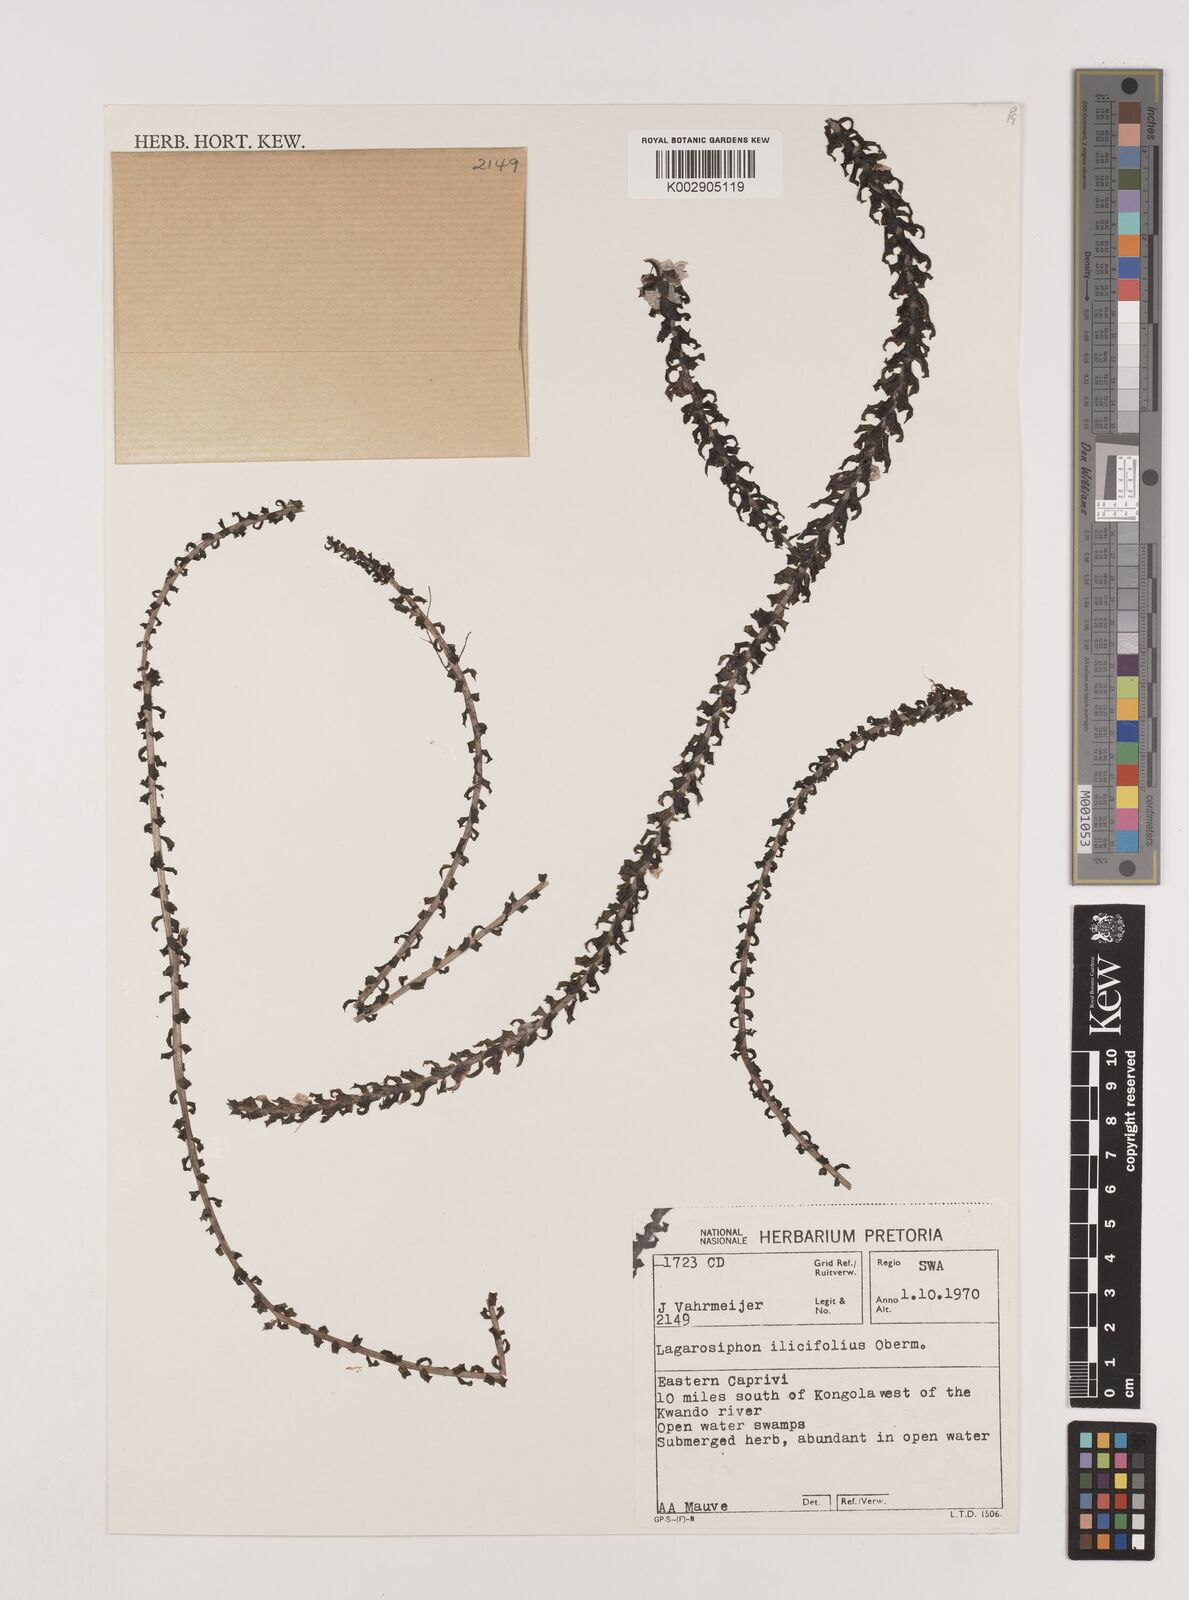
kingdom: Plantae
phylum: Tracheophyta
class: Liliopsida
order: Alismatales
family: Hydrocharitaceae
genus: Lagarosiphon
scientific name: Lagarosiphon ilicifolius
